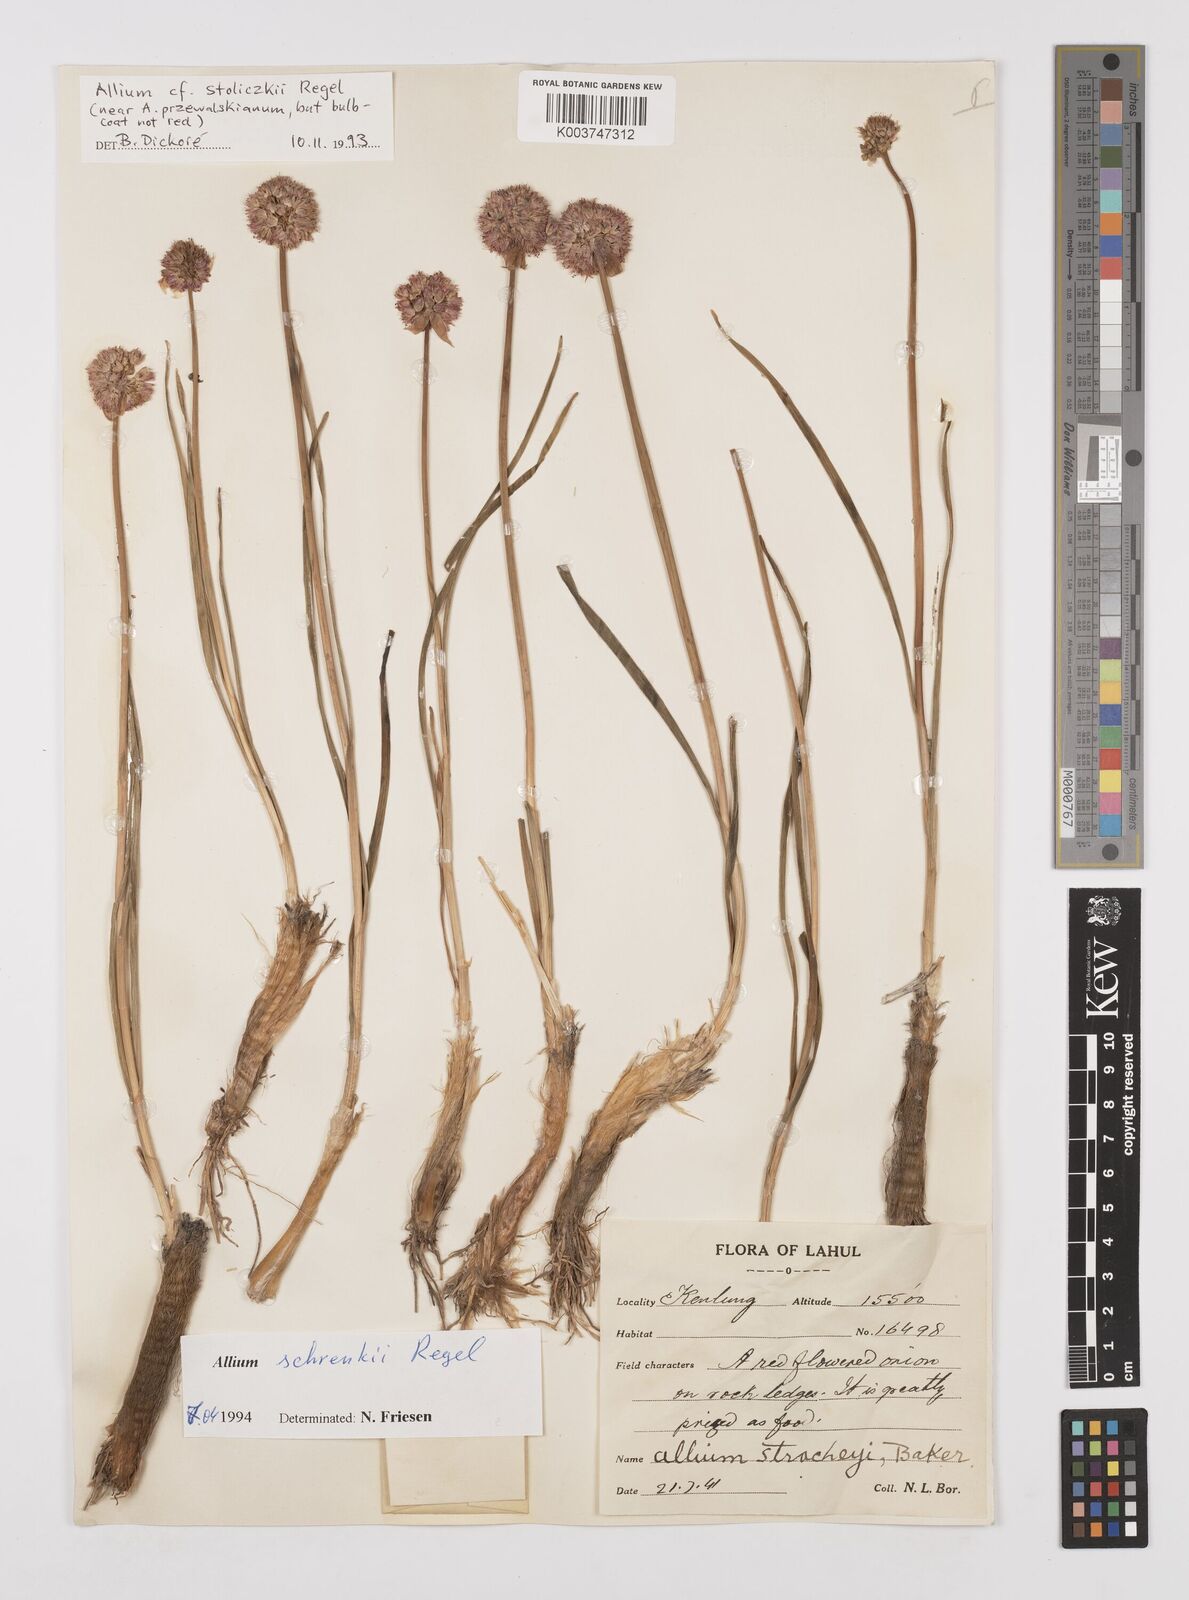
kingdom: Plantae
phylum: Tracheophyta
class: Liliopsida
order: Asparagales
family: Amaryllidaceae
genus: Allium
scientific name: Allium schrenkii
